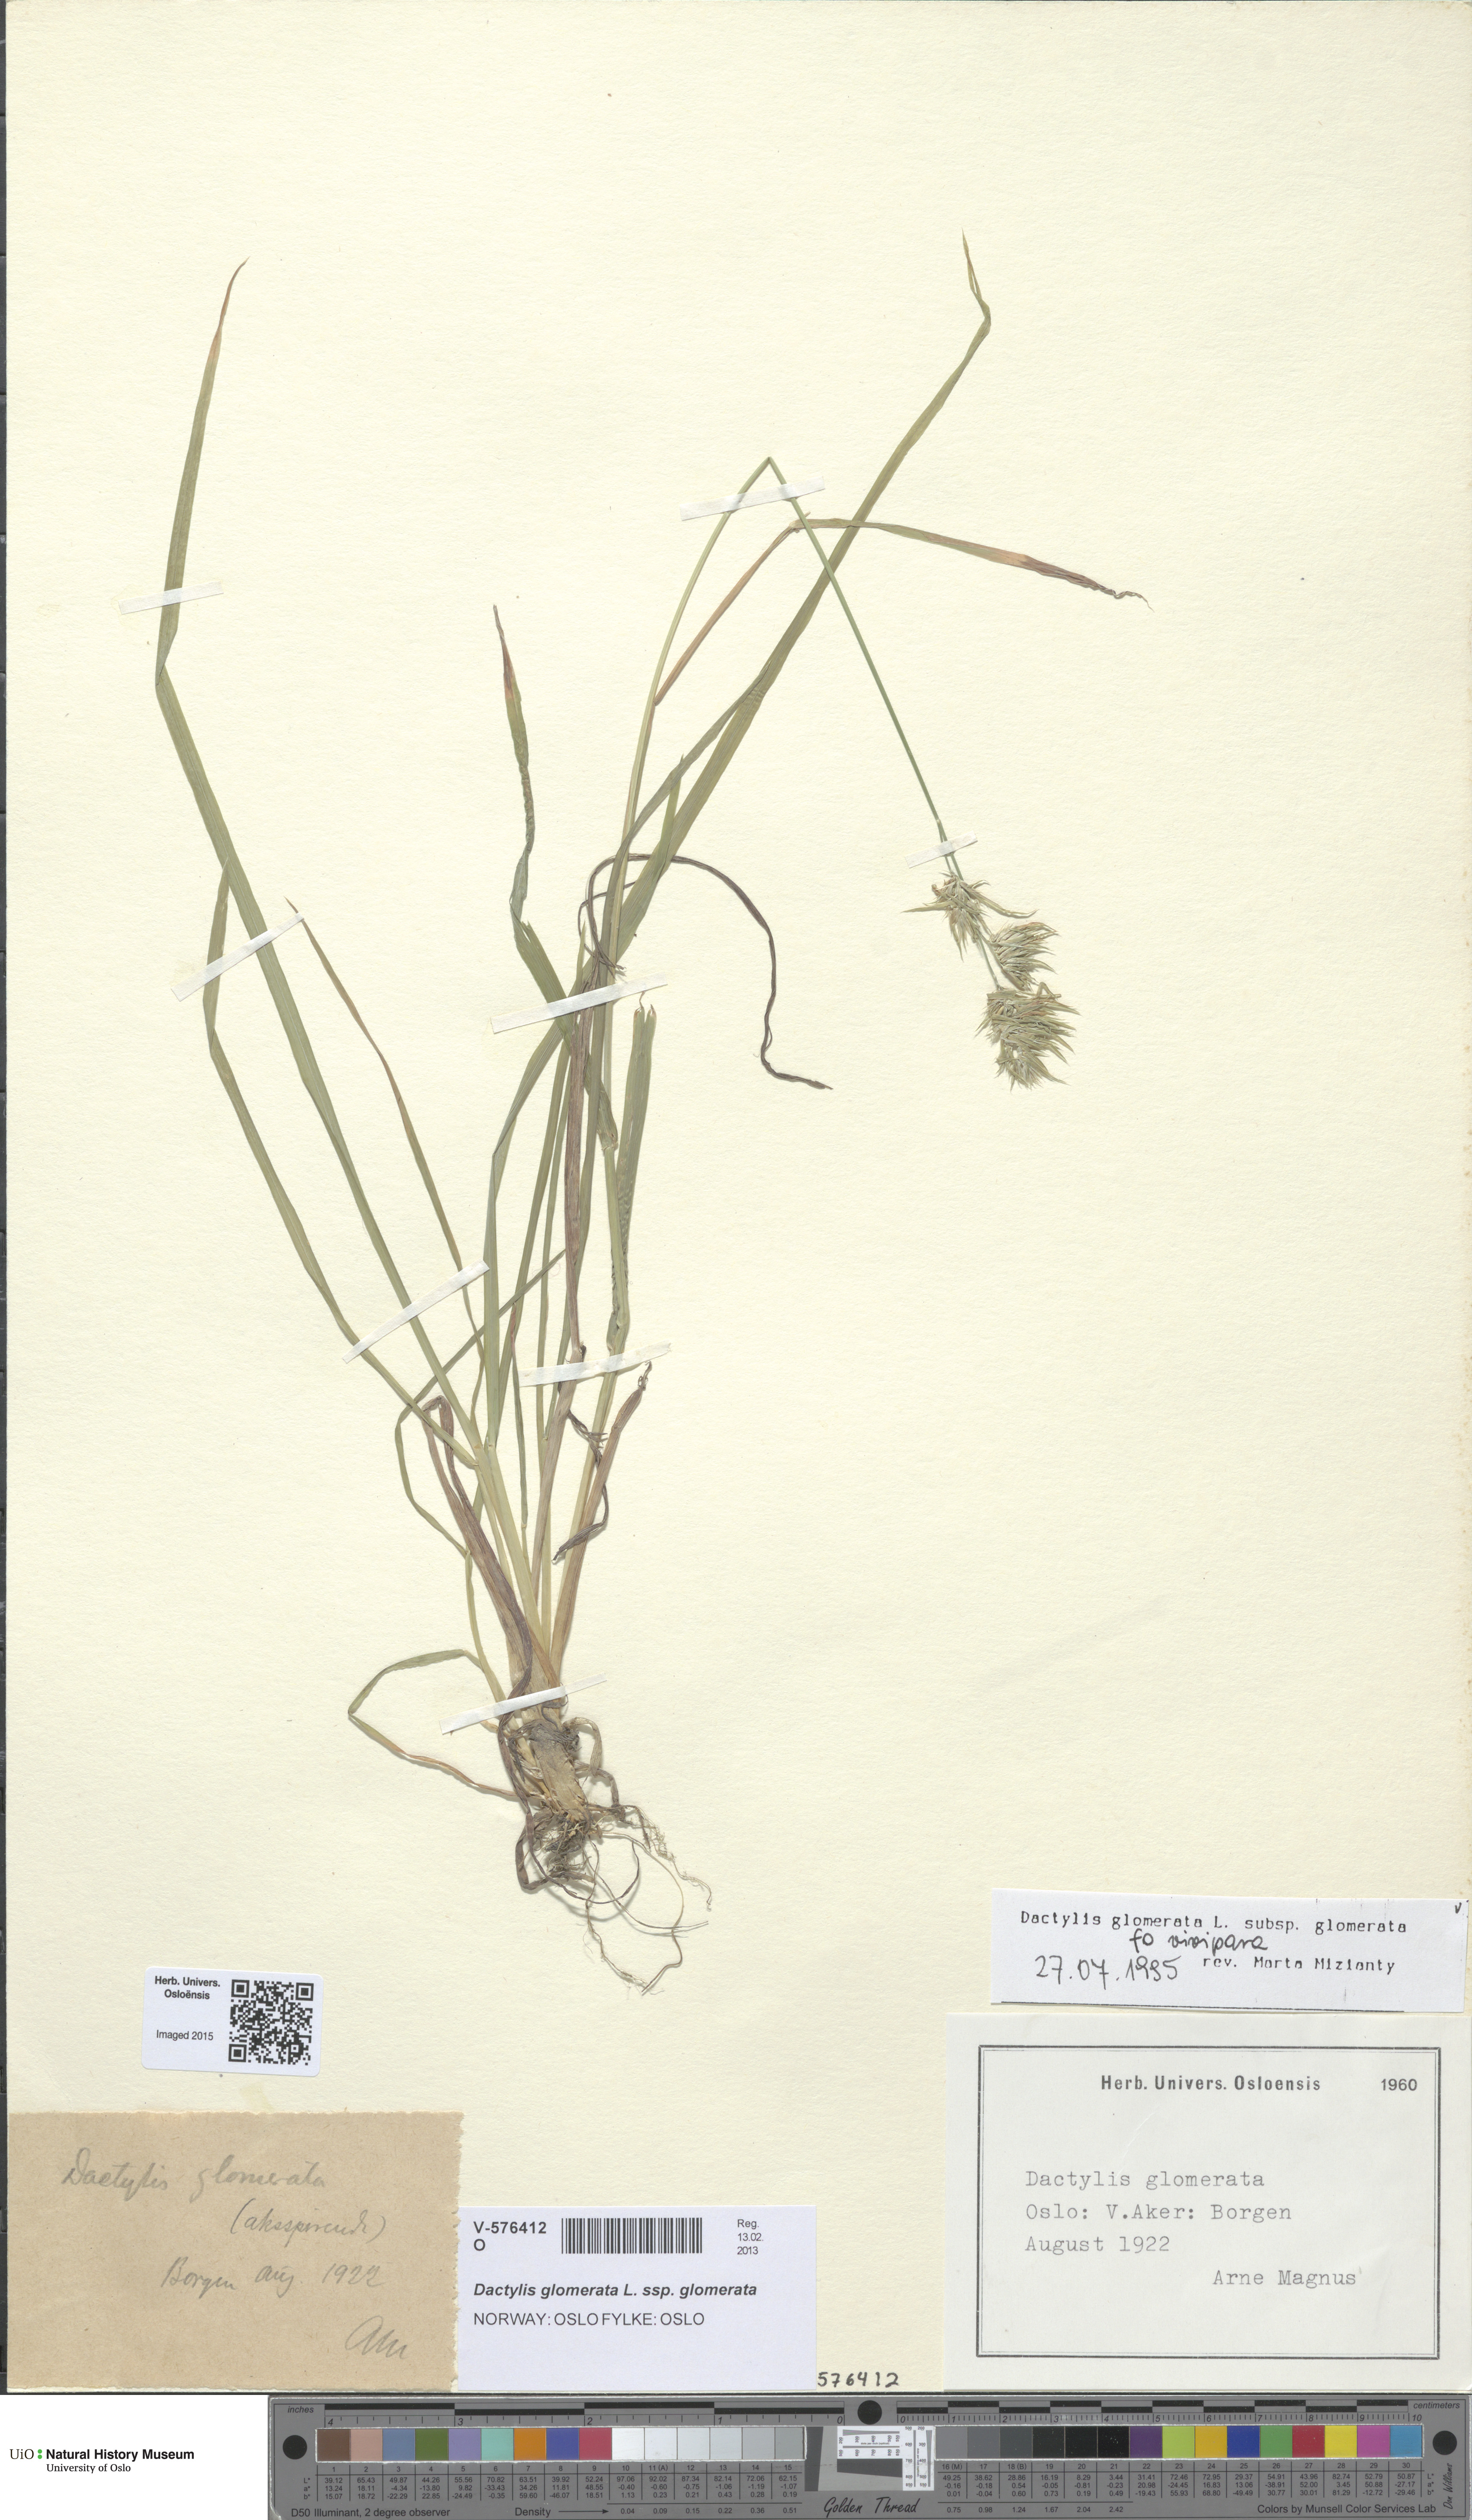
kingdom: Plantae
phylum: Tracheophyta
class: Liliopsida
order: Poales
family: Poaceae
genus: Dactylis
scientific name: Dactylis glomerata
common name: Orchardgrass
